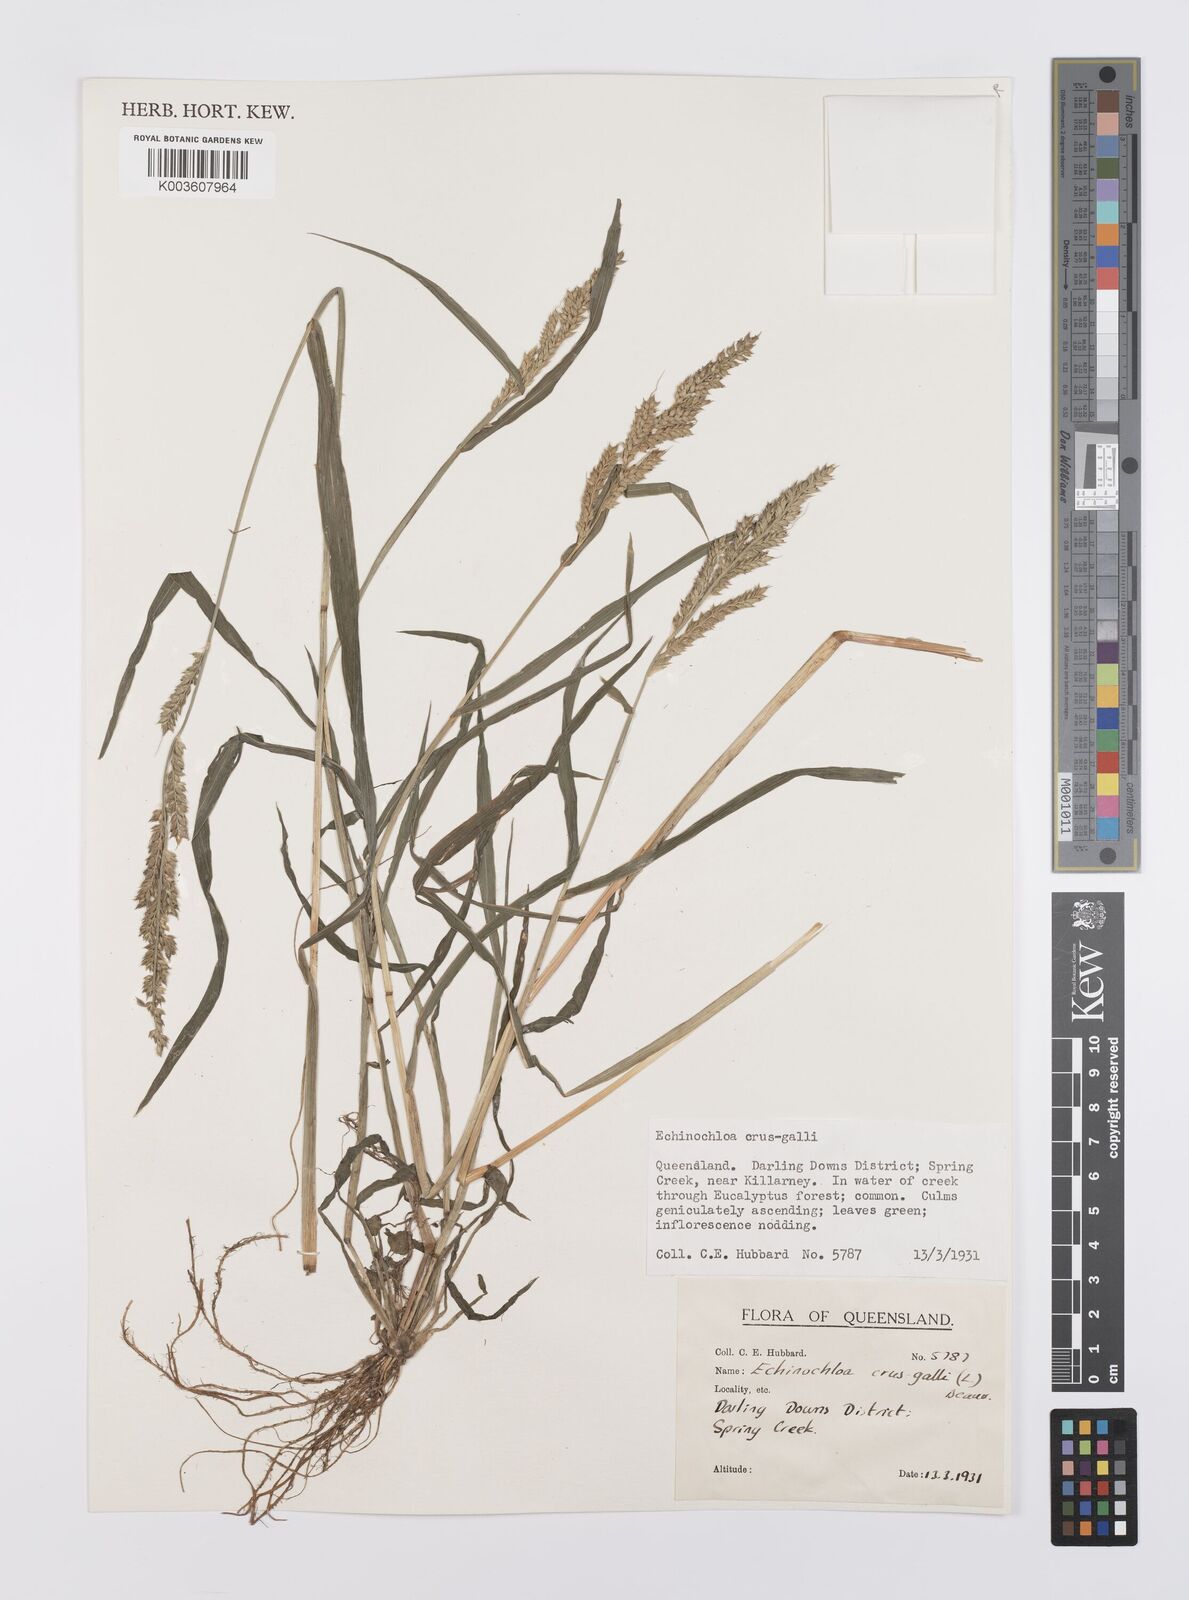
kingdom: Plantae
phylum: Tracheophyta
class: Liliopsida
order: Poales
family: Poaceae
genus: Echinochloa
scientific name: Echinochloa crus-galli
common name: Cockspur
